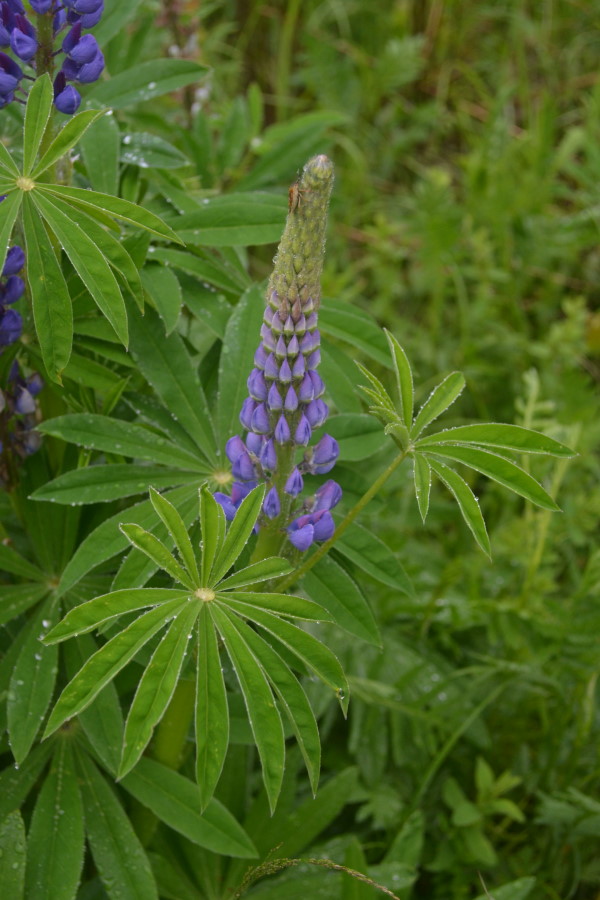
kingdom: Plantae
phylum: Tracheophyta
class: Magnoliopsida
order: Fabales
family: Fabaceae
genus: Lupinus
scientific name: Lupinus polyphyllus
